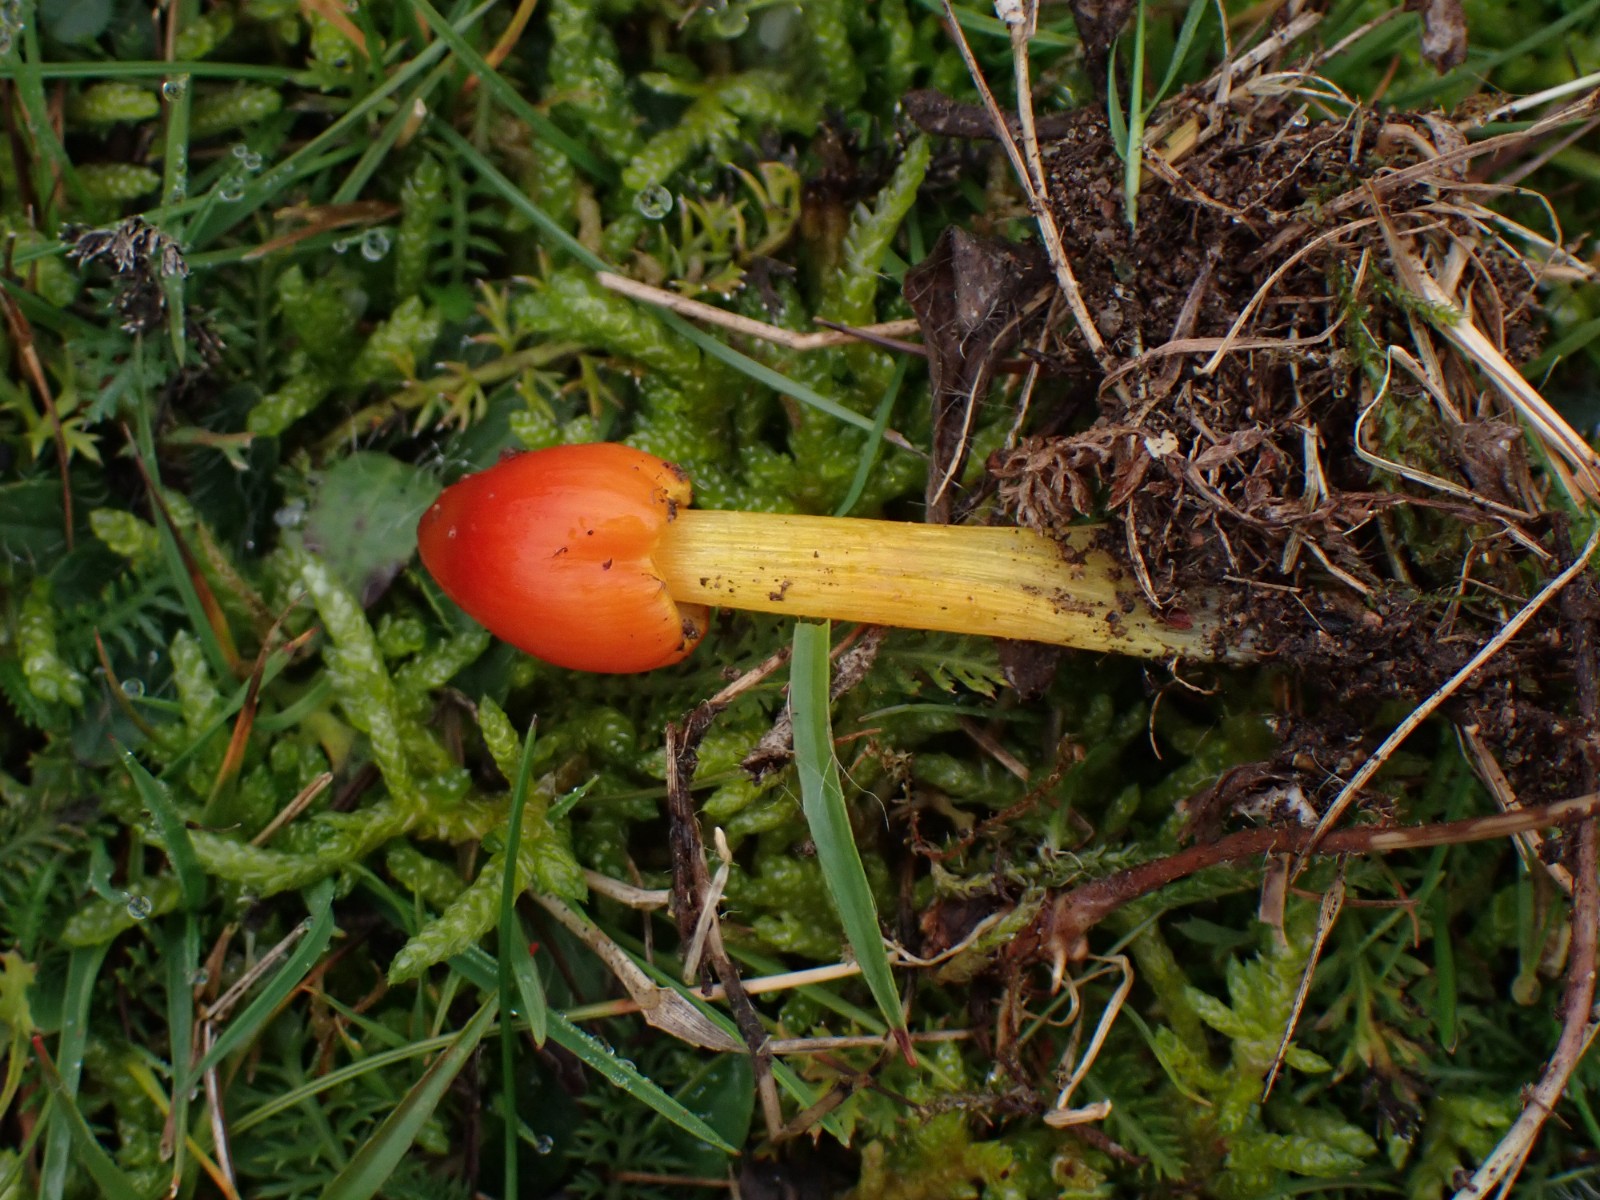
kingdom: Fungi
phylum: Basidiomycota
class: Agaricomycetes
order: Agaricales
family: Hygrophoraceae
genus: Hygrocybe
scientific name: Hygrocybe conica
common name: kegle-vokshat
